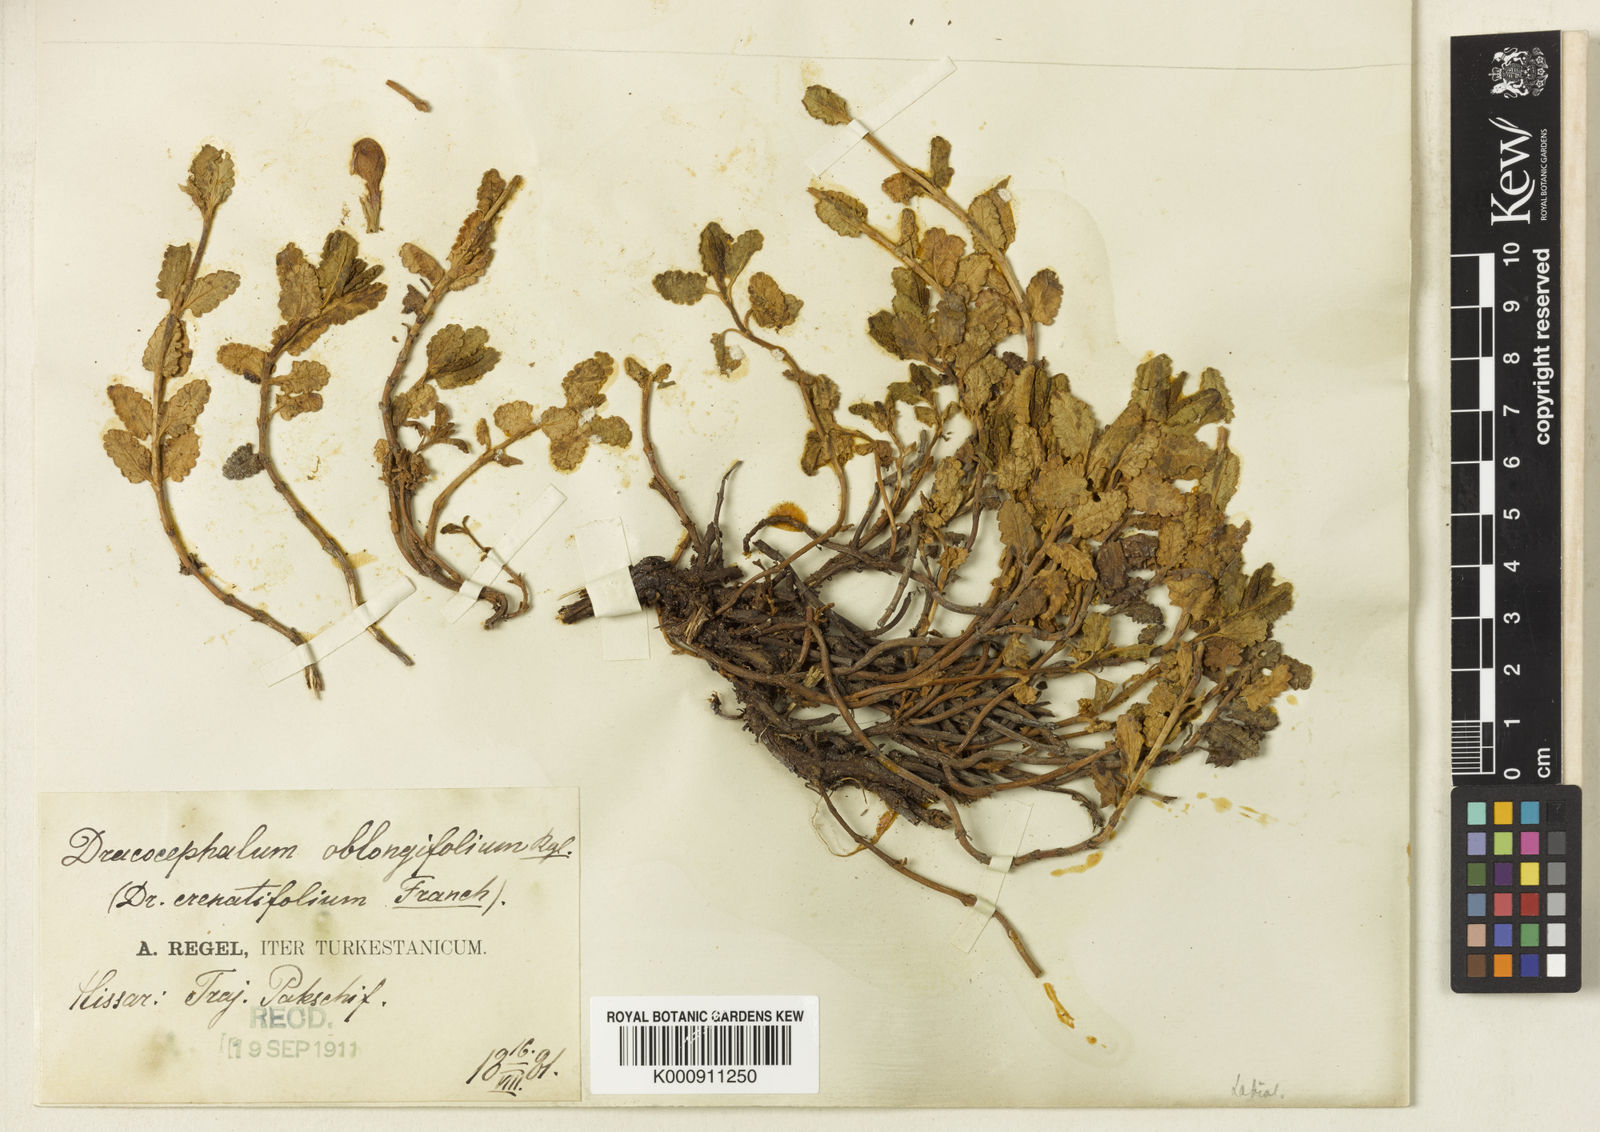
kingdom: Plantae
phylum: Tracheophyta
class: Magnoliopsida
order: Lamiales
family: Lamiaceae
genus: Dracocephalum
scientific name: Dracocephalum oblongifolium
